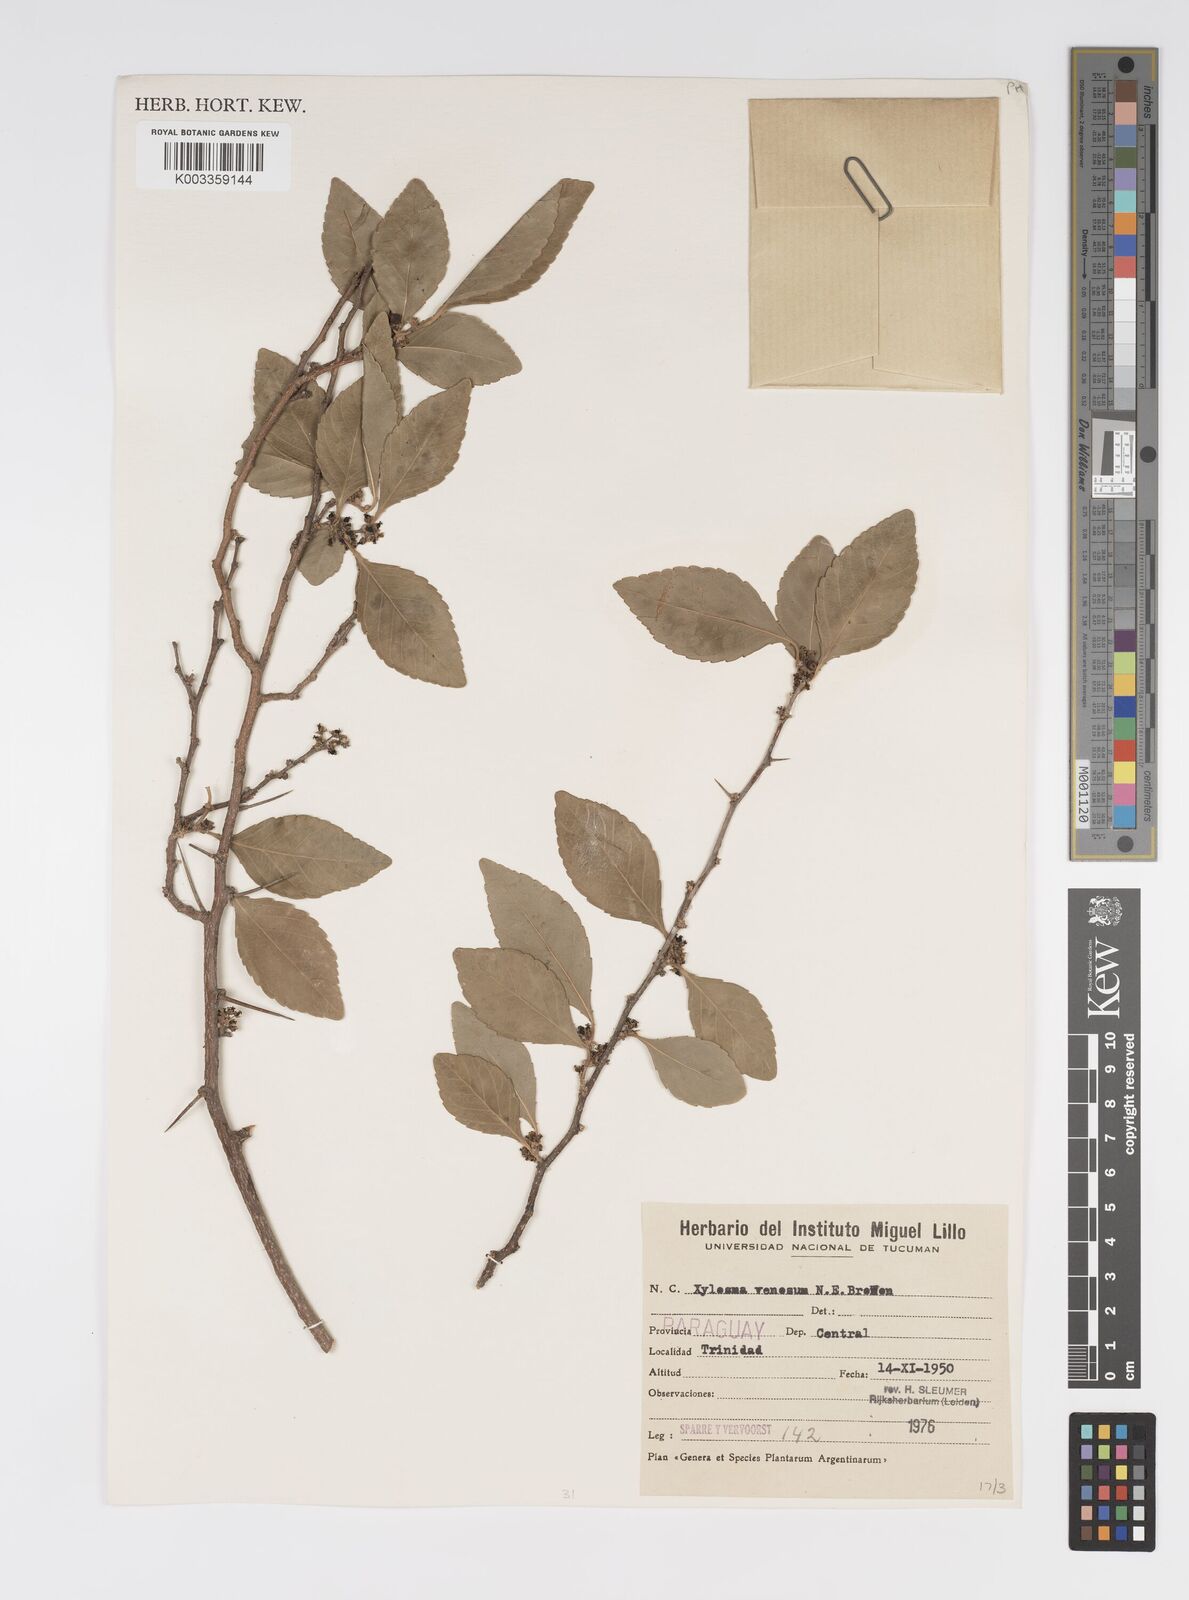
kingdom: Plantae
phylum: Tracheophyta
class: Magnoliopsida
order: Malpighiales
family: Salicaceae
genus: Xylosma
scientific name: Xylosma venosa
